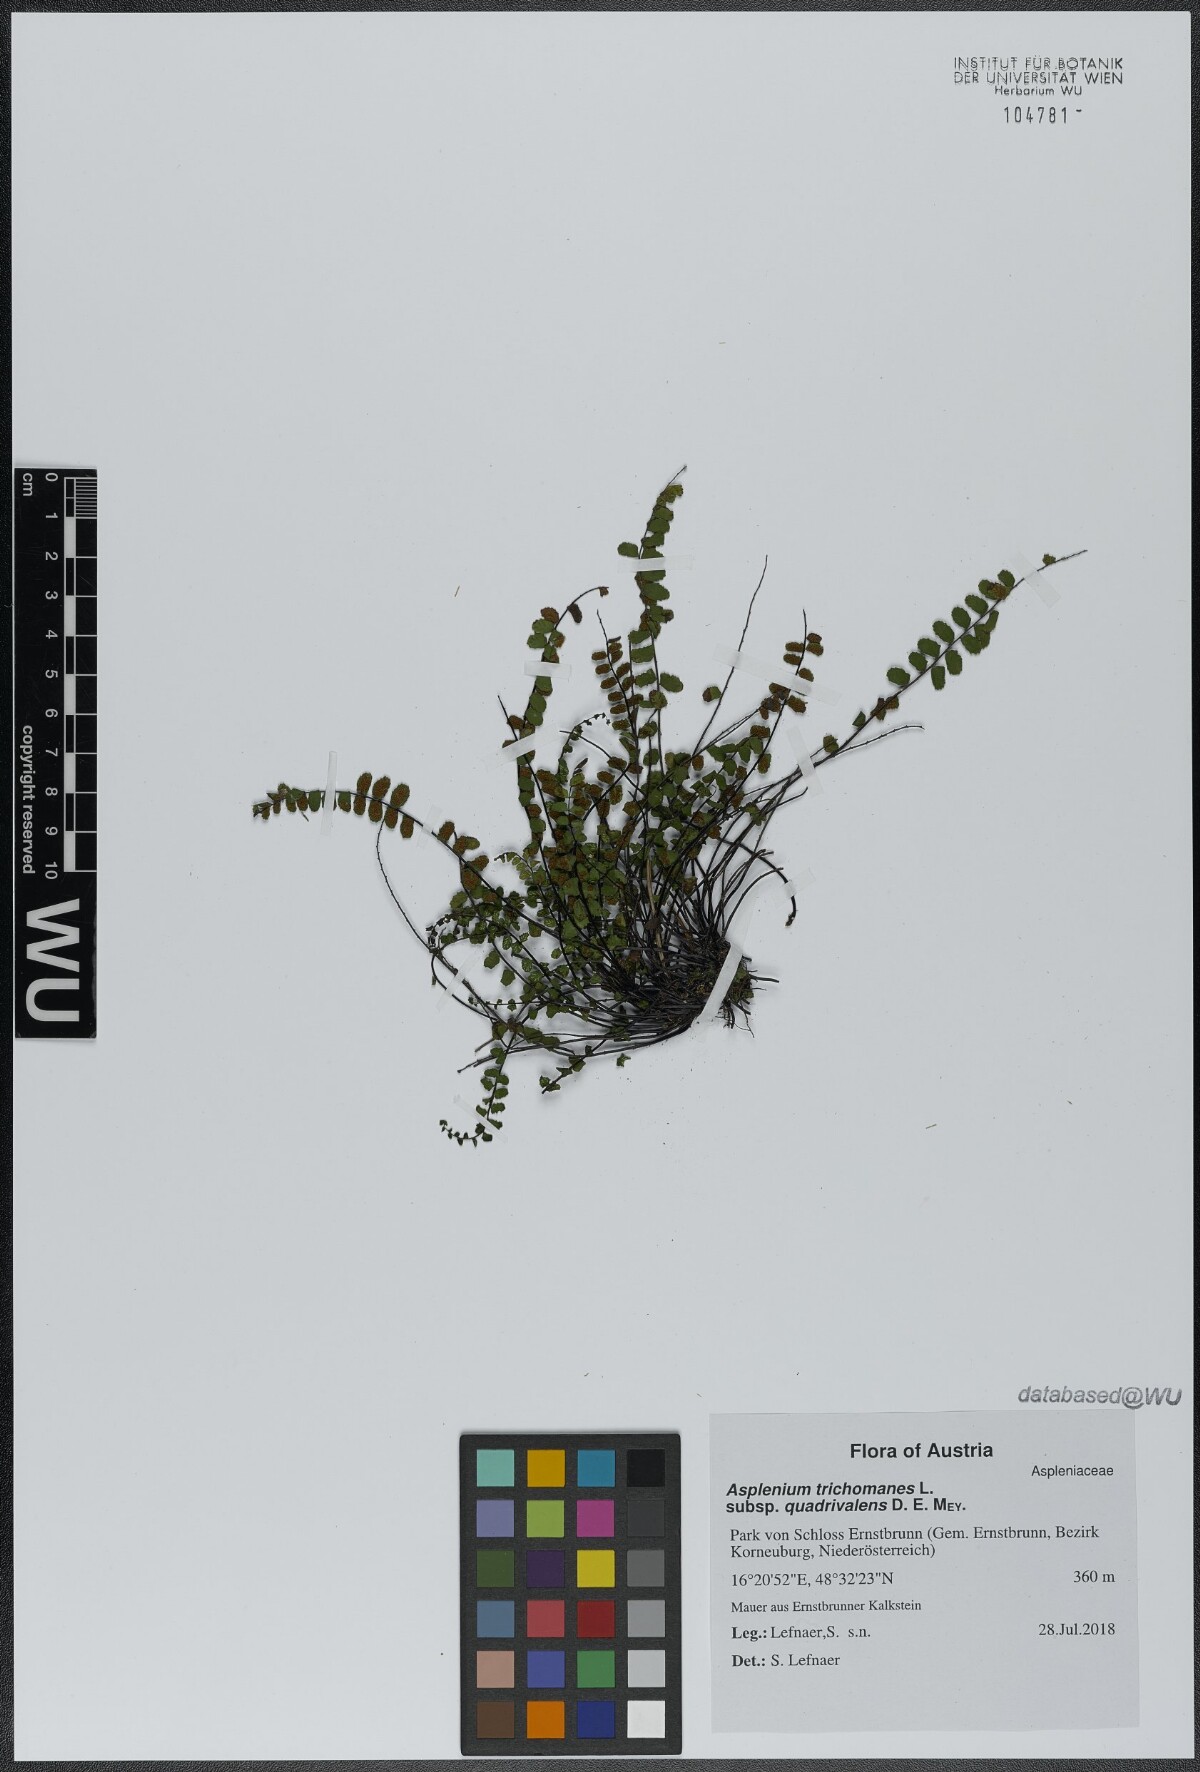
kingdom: Plantae
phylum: Tracheophyta
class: Polypodiopsida
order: Polypodiales
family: Aspleniaceae
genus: Asplenium
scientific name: Asplenium quadrivalens
